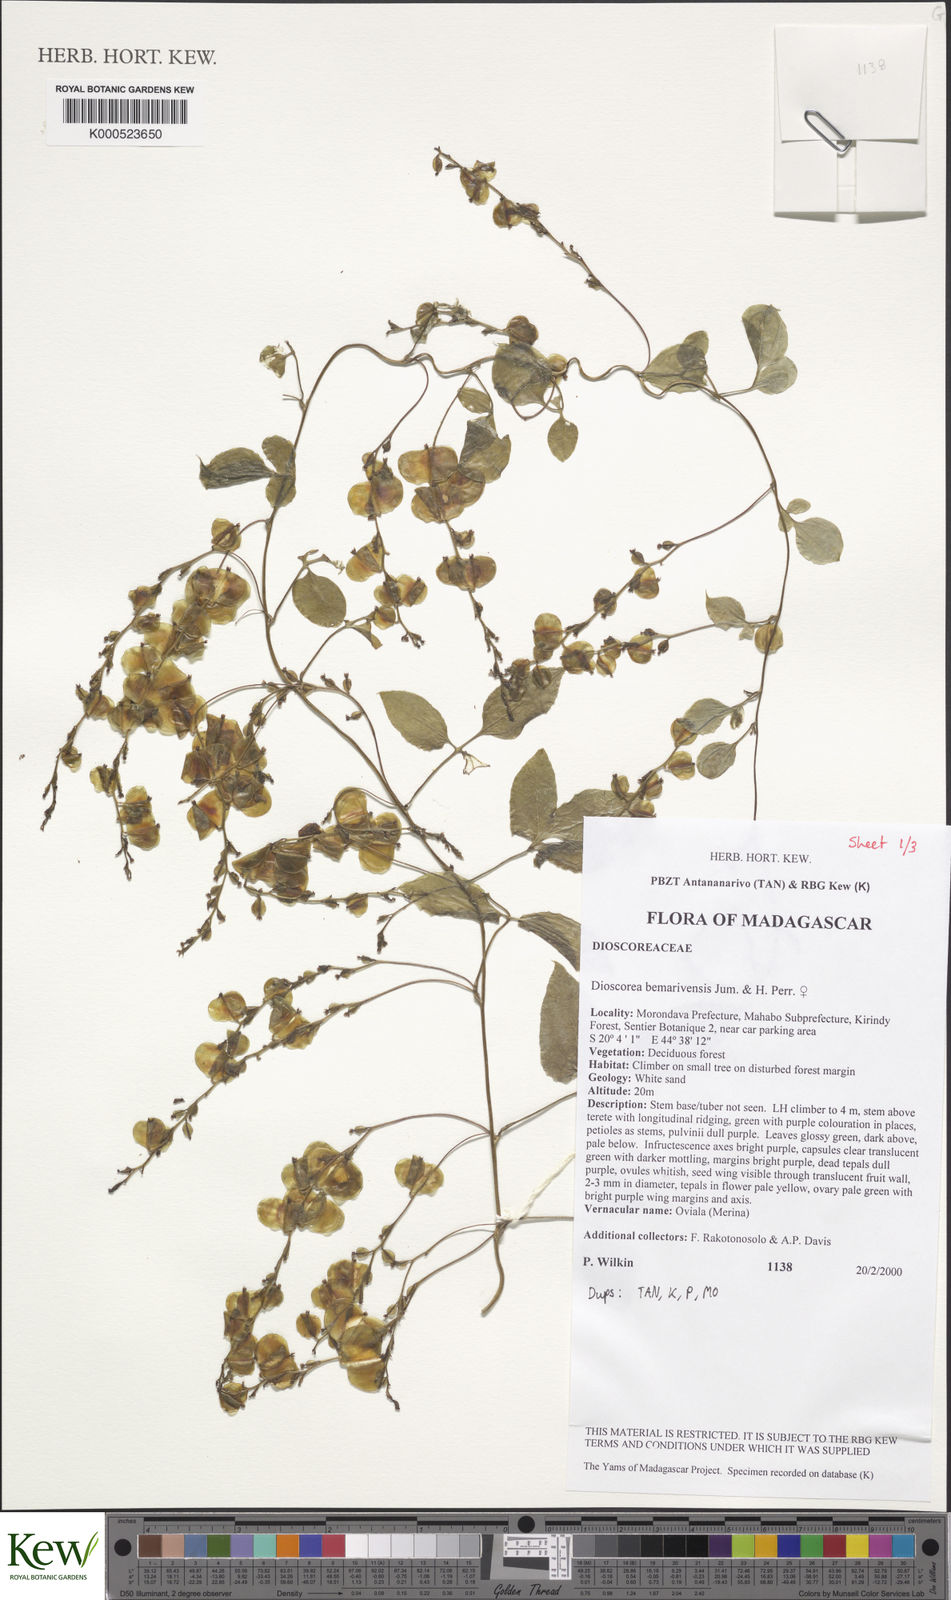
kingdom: Plantae
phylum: Tracheophyta
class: Liliopsida
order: Dioscoreales
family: Dioscoreaceae
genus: Dioscorea
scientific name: Dioscorea bemarivensis
